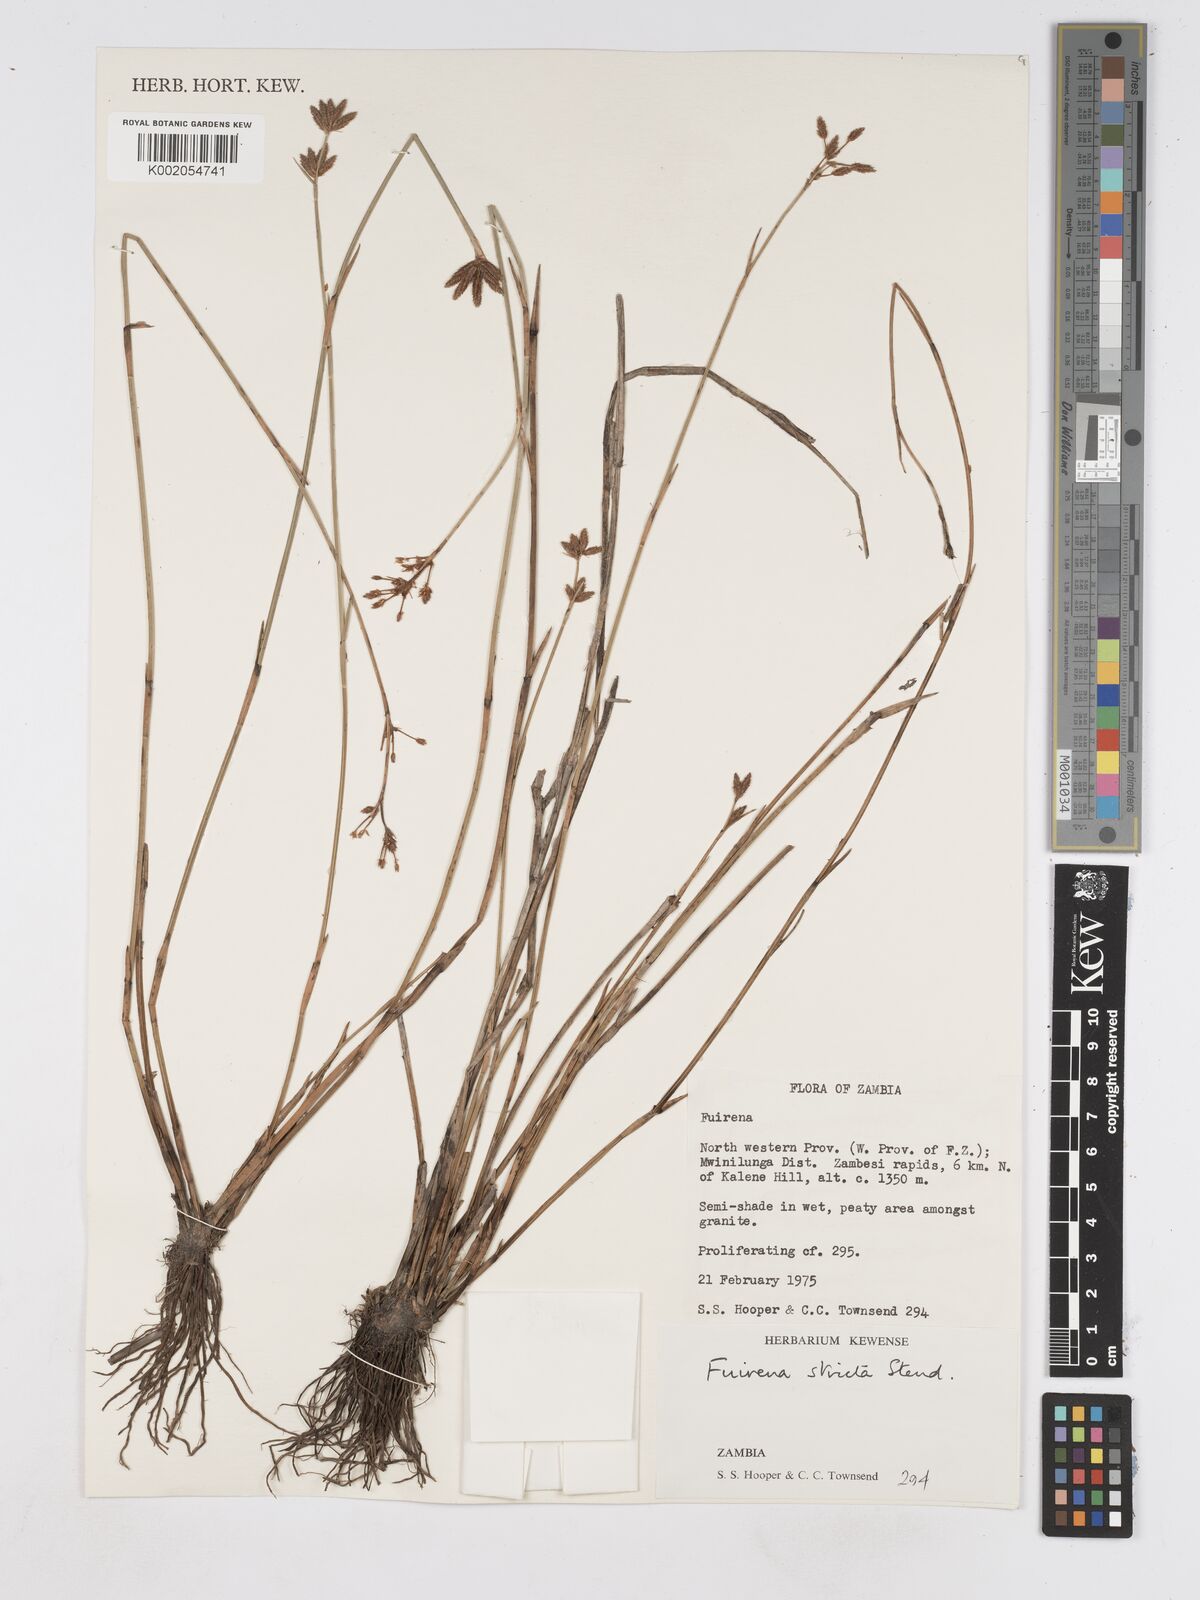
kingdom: Plantae
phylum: Tracheophyta
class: Liliopsida
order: Poales
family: Cyperaceae
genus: Fuirena
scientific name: Fuirena stricta
